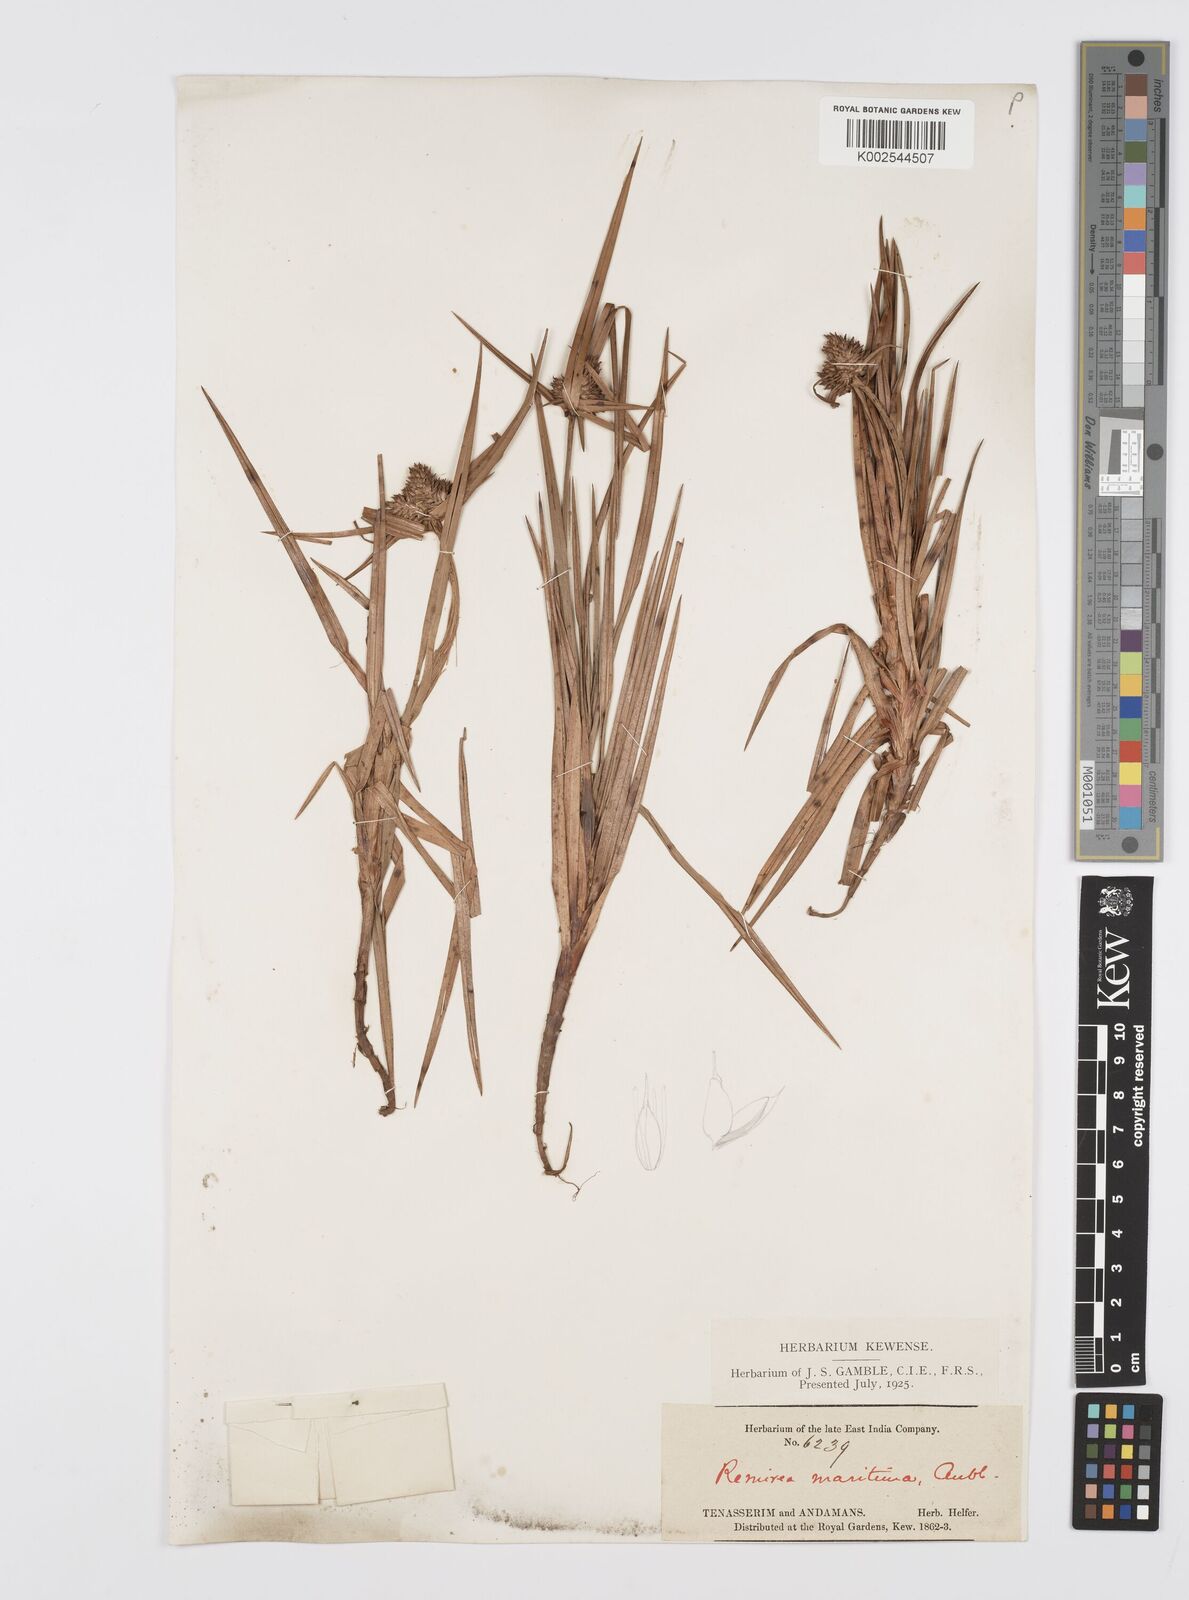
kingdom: Plantae
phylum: Tracheophyta
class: Liliopsida
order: Poales
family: Cyperaceae
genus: Cyperus
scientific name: Cyperus
